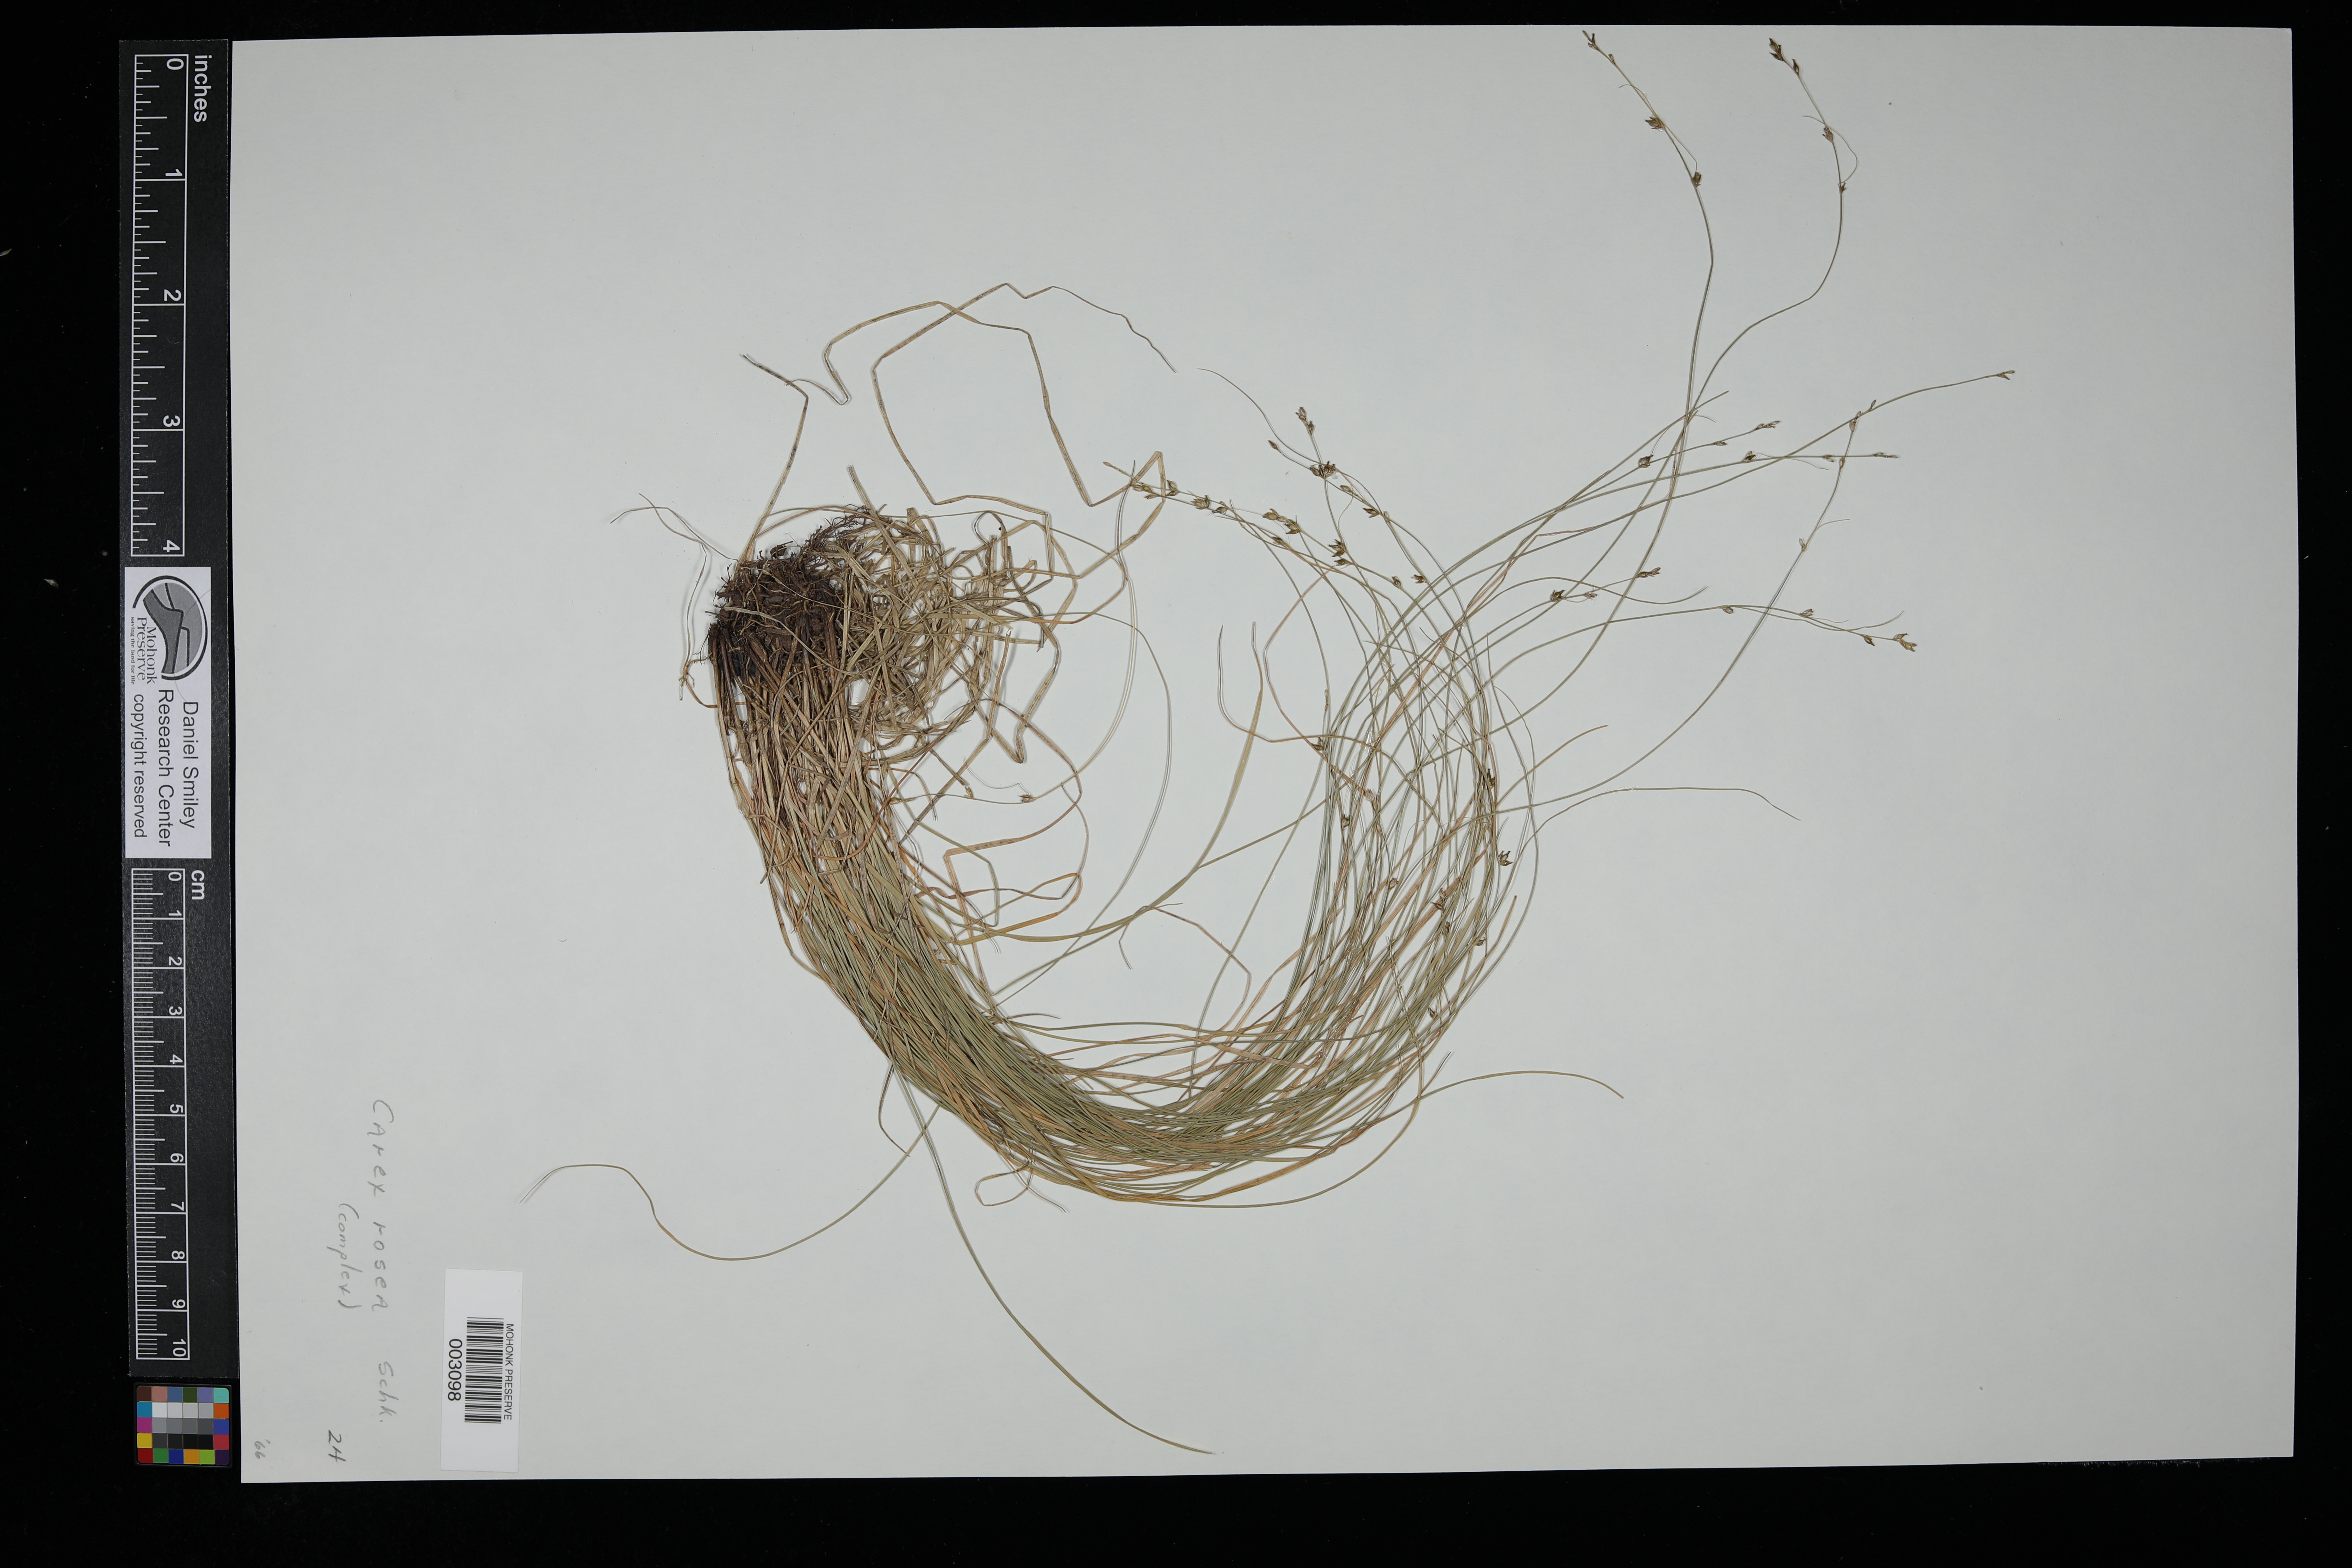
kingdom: Plantae
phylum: Tracheophyta
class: Liliopsida
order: Poales
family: Cyperaceae
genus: Carex
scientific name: Carex rosea
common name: Curly-styled wood sedge
